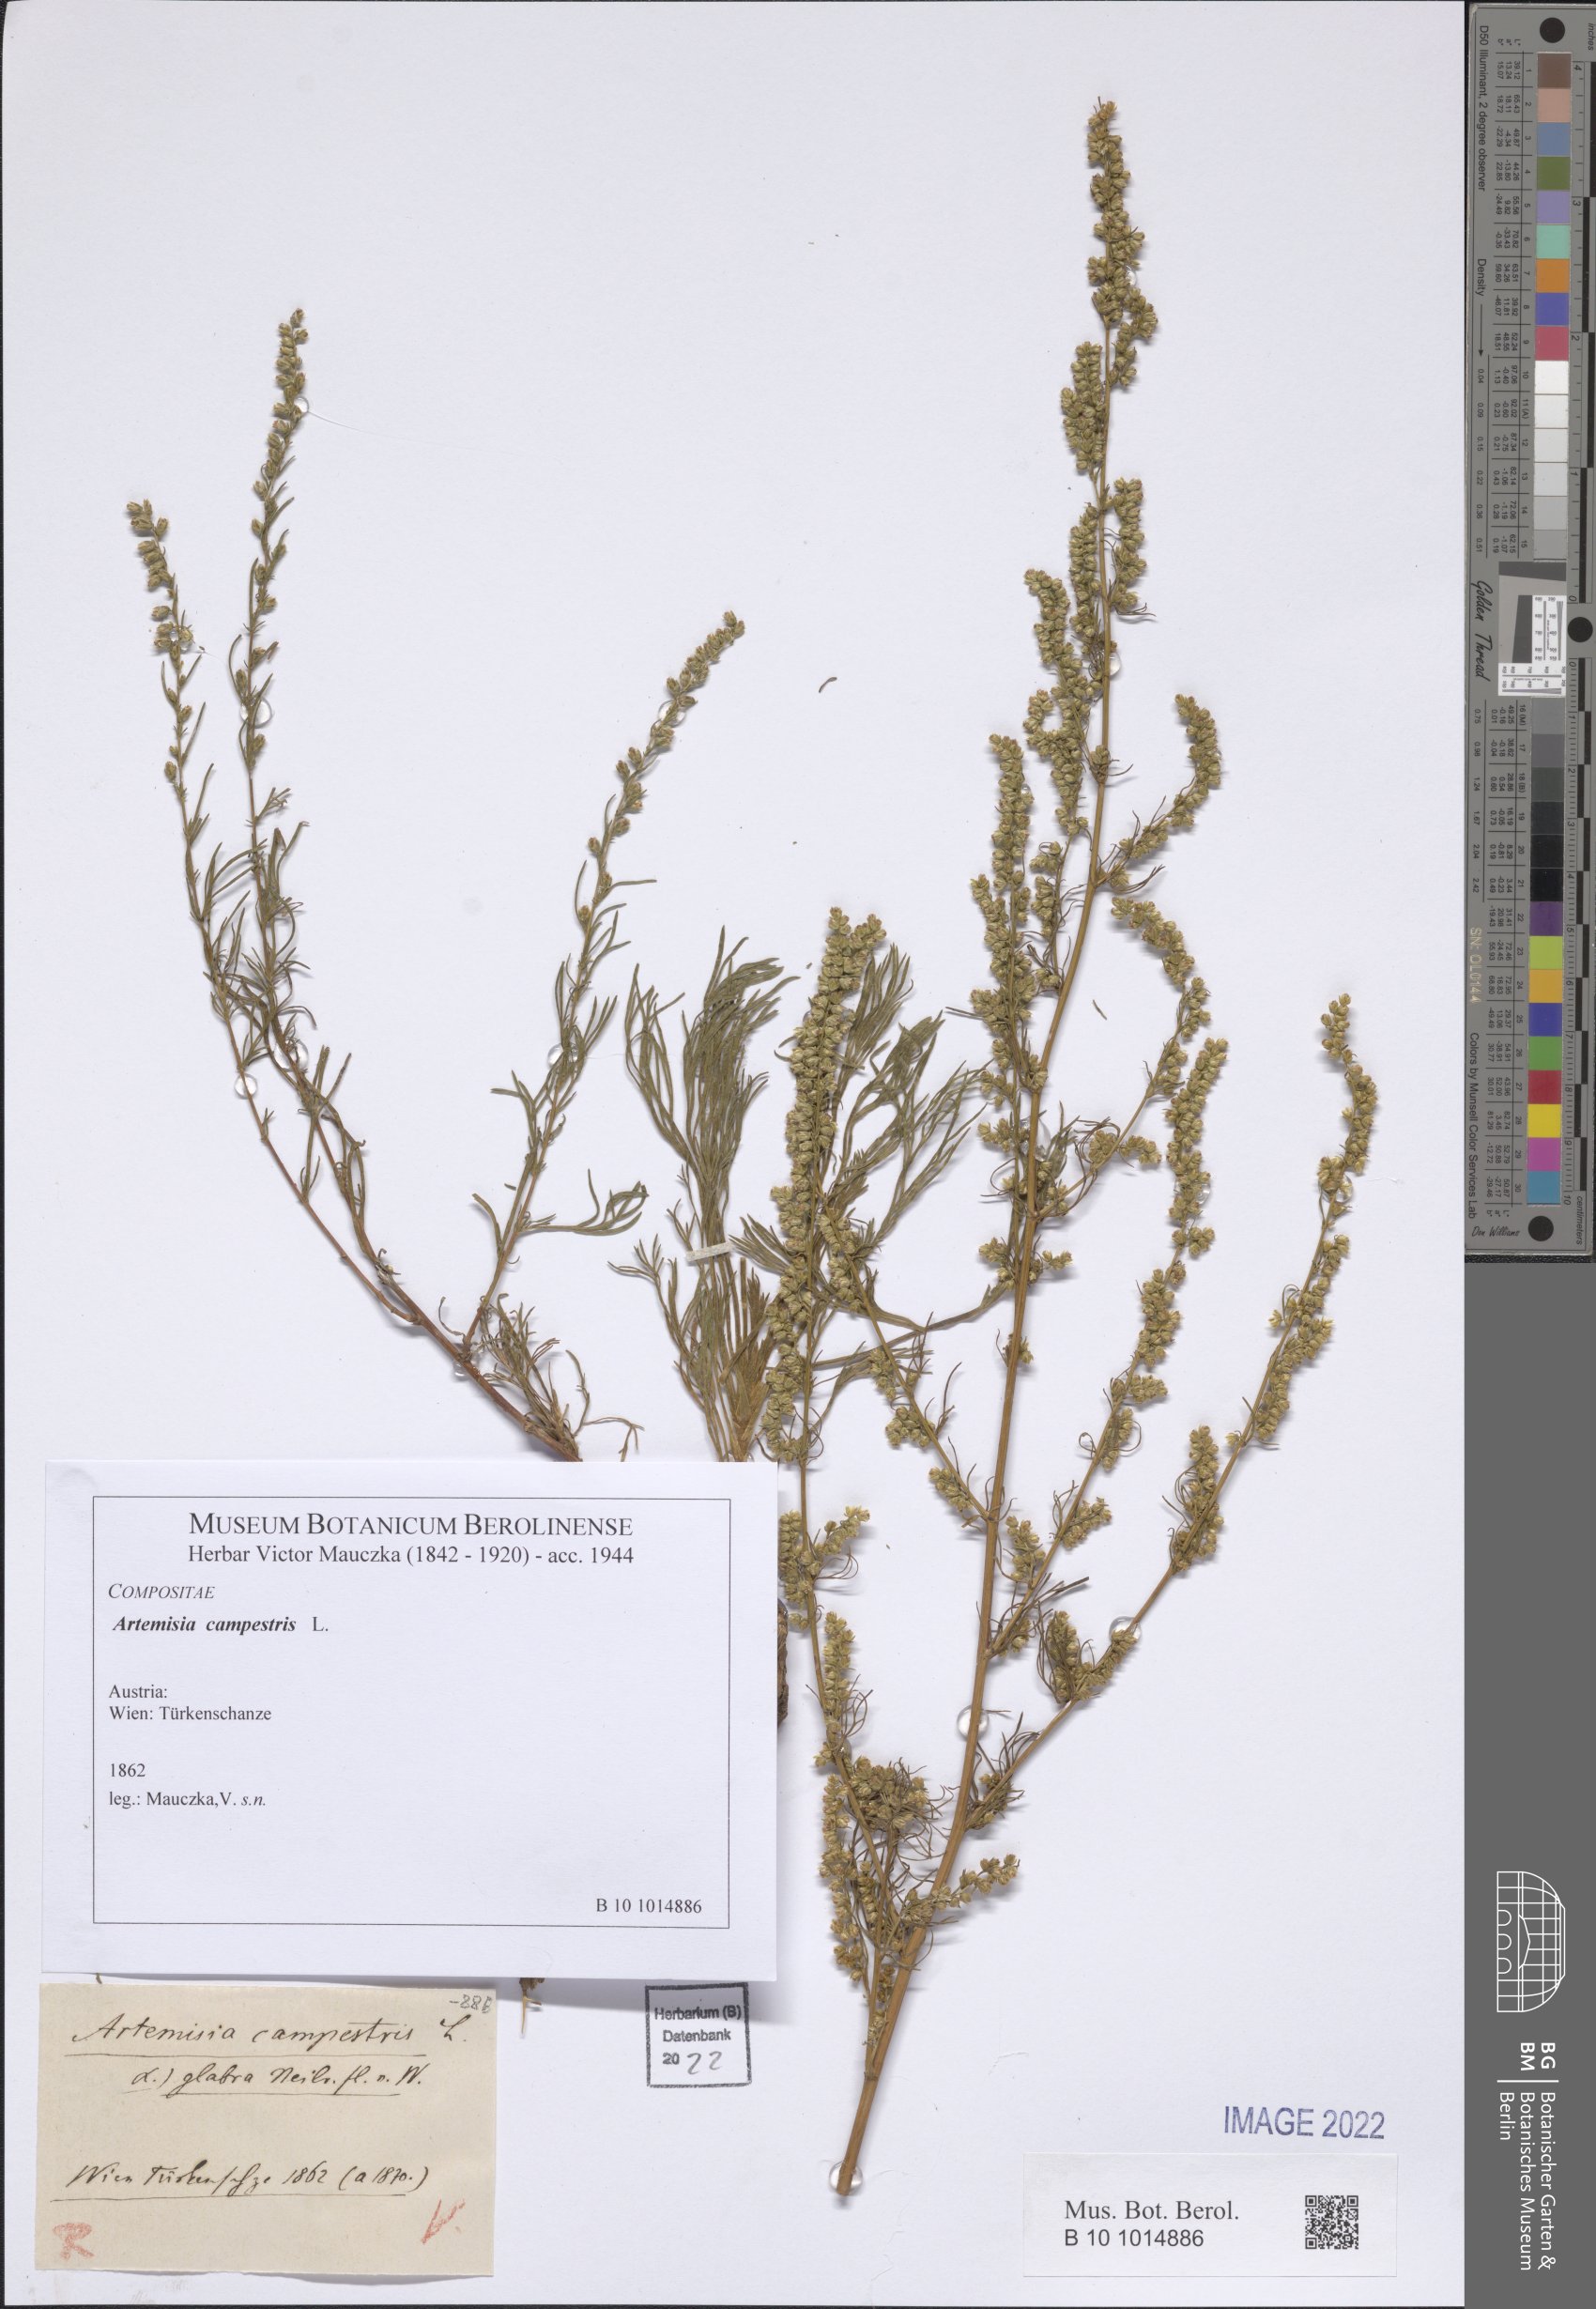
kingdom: Plantae
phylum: Tracheophyta
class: Magnoliopsida
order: Asterales
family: Asteraceae
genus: Artemisia
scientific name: Artemisia campestris
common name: Field wormwood
